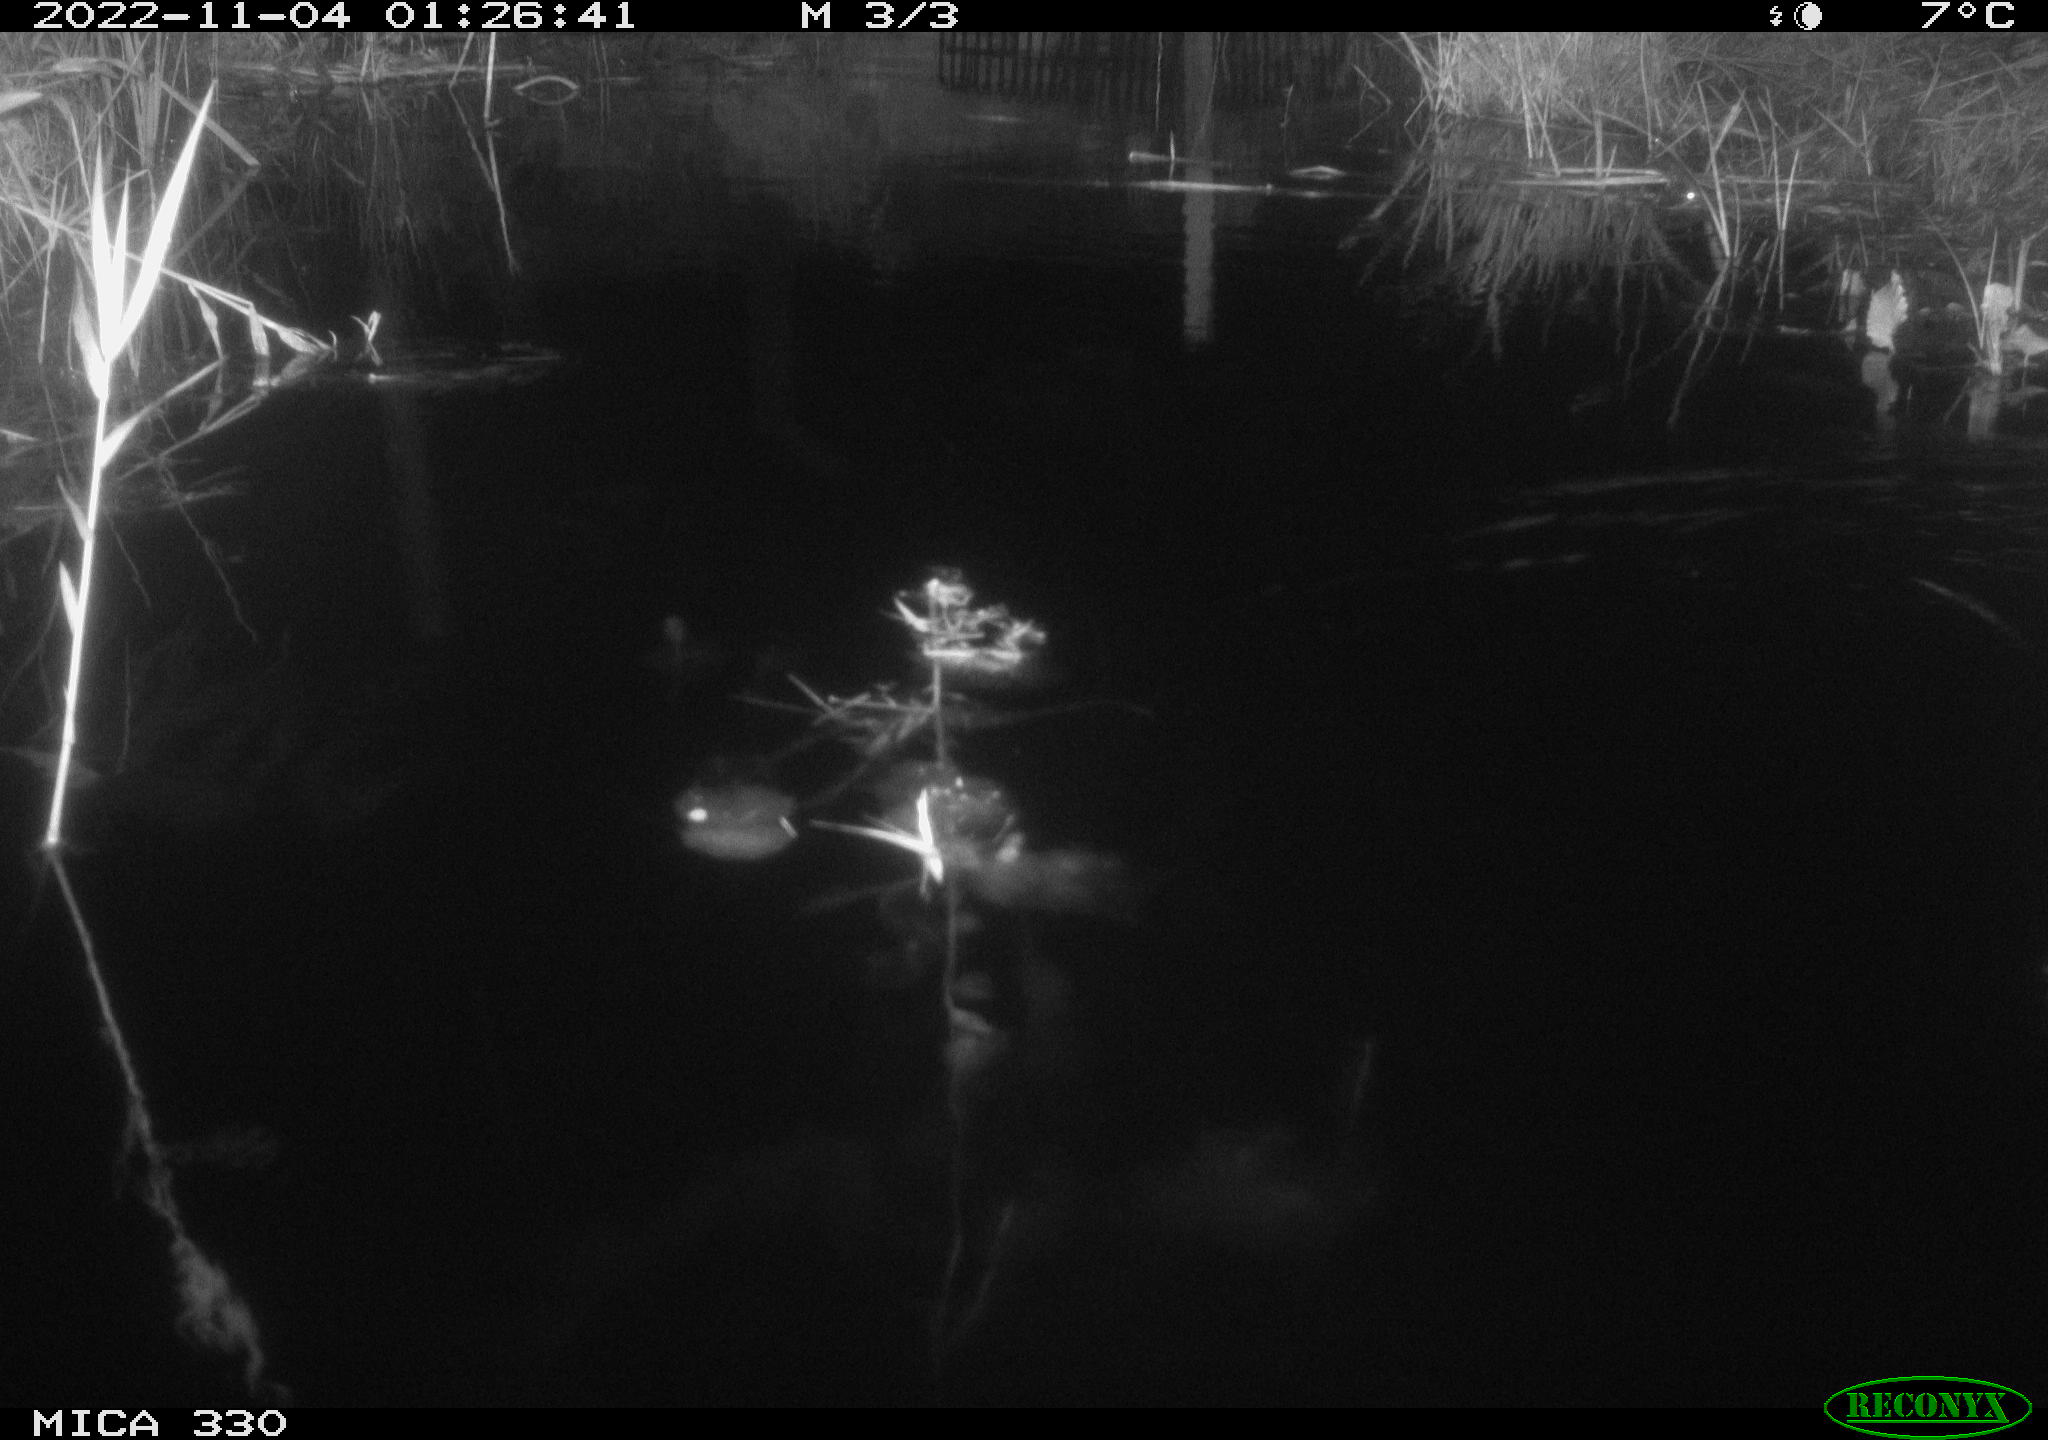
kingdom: Animalia
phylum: Chordata
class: Mammalia
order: Rodentia
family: Muridae
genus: Rattus
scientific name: Rattus norvegicus
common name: Brown rat
